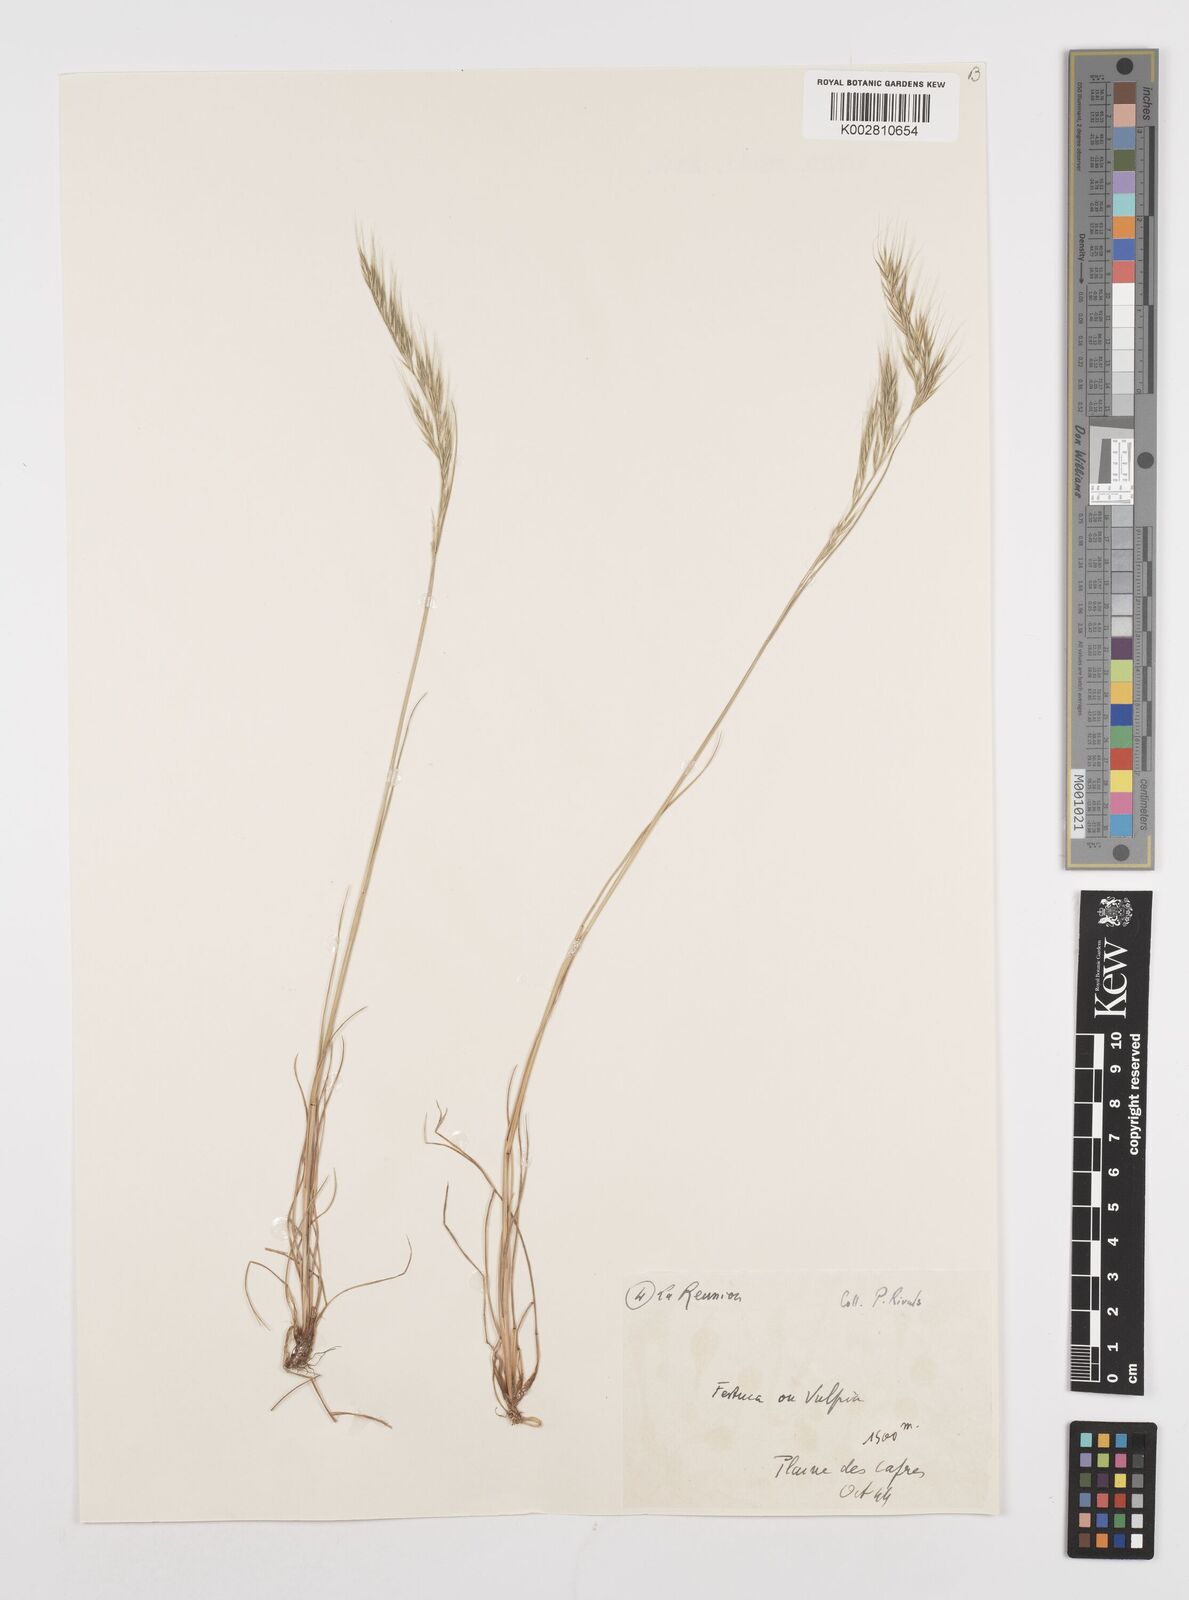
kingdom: Plantae
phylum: Tracheophyta
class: Liliopsida
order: Poales
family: Poaceae
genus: Festuca
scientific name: Festuca bromoides
